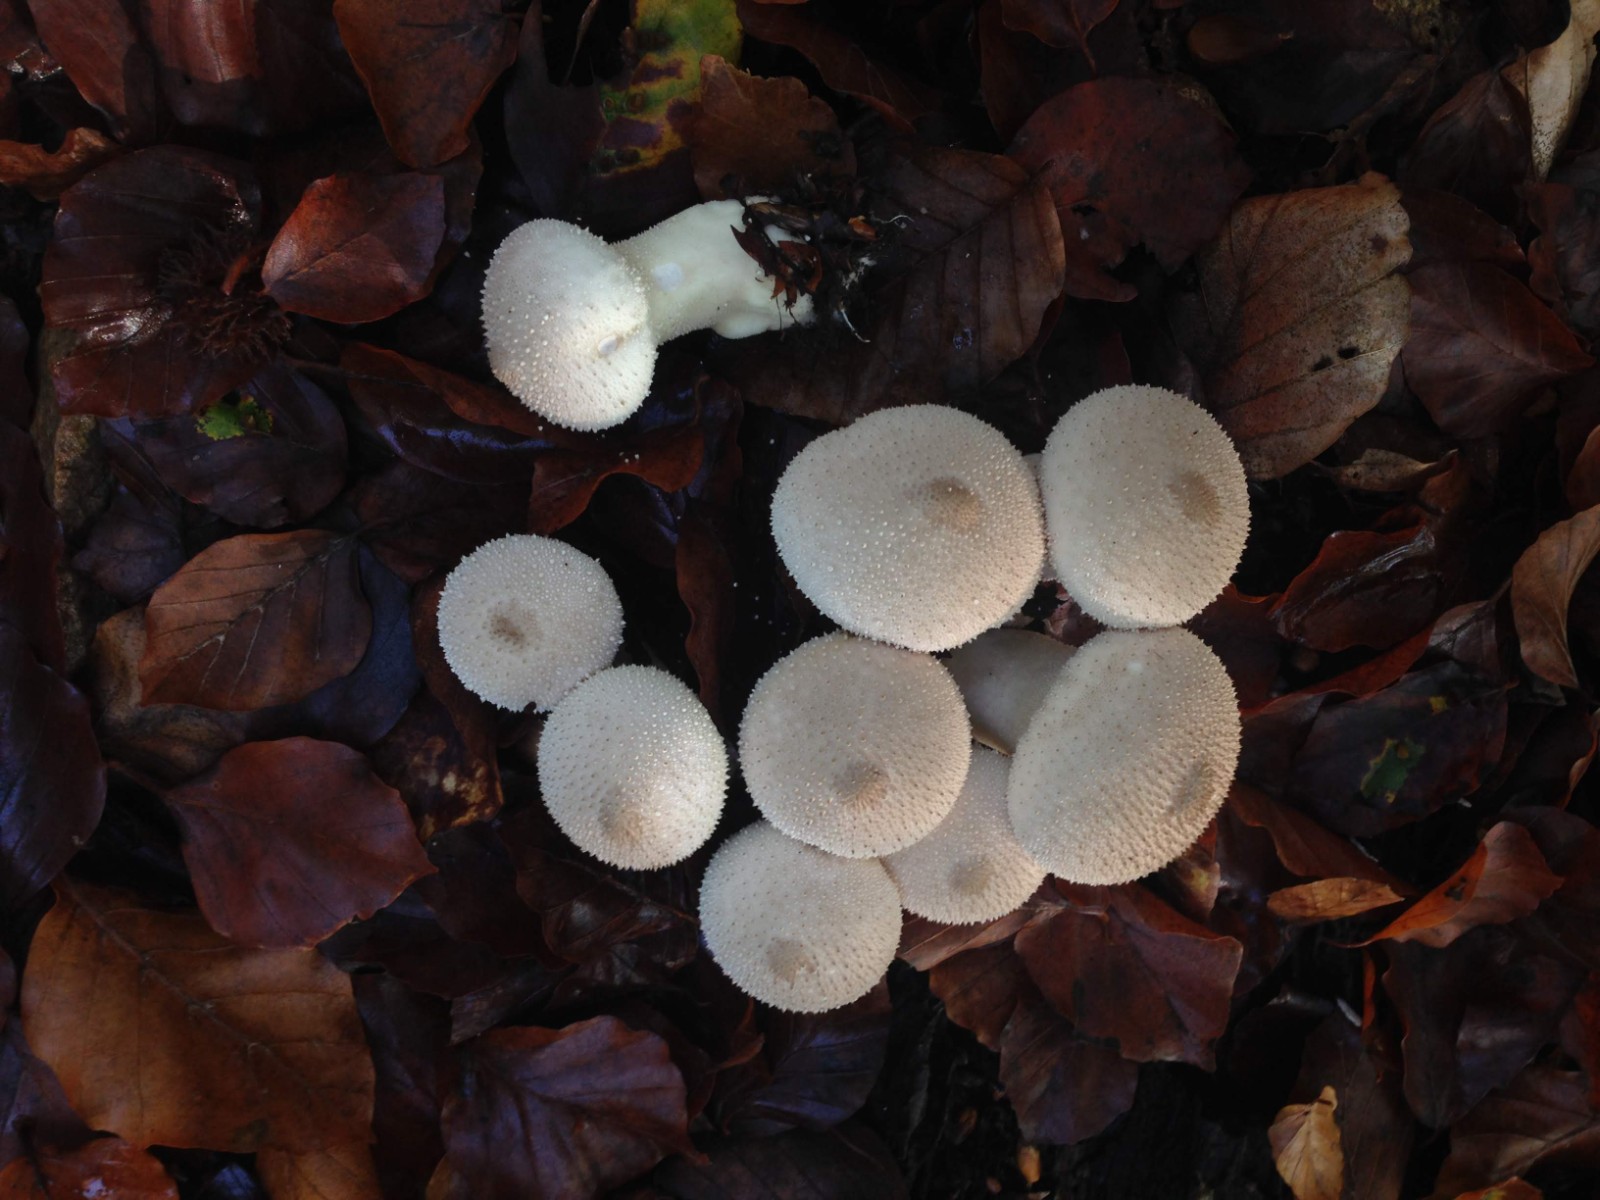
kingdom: Fungi
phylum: Basidiomycota
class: Agaricomycetes
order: Agaricales
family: Lycoperdaceae
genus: Lycoperdon
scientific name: Lycoperdon perlatum
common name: krystal-støvbold
